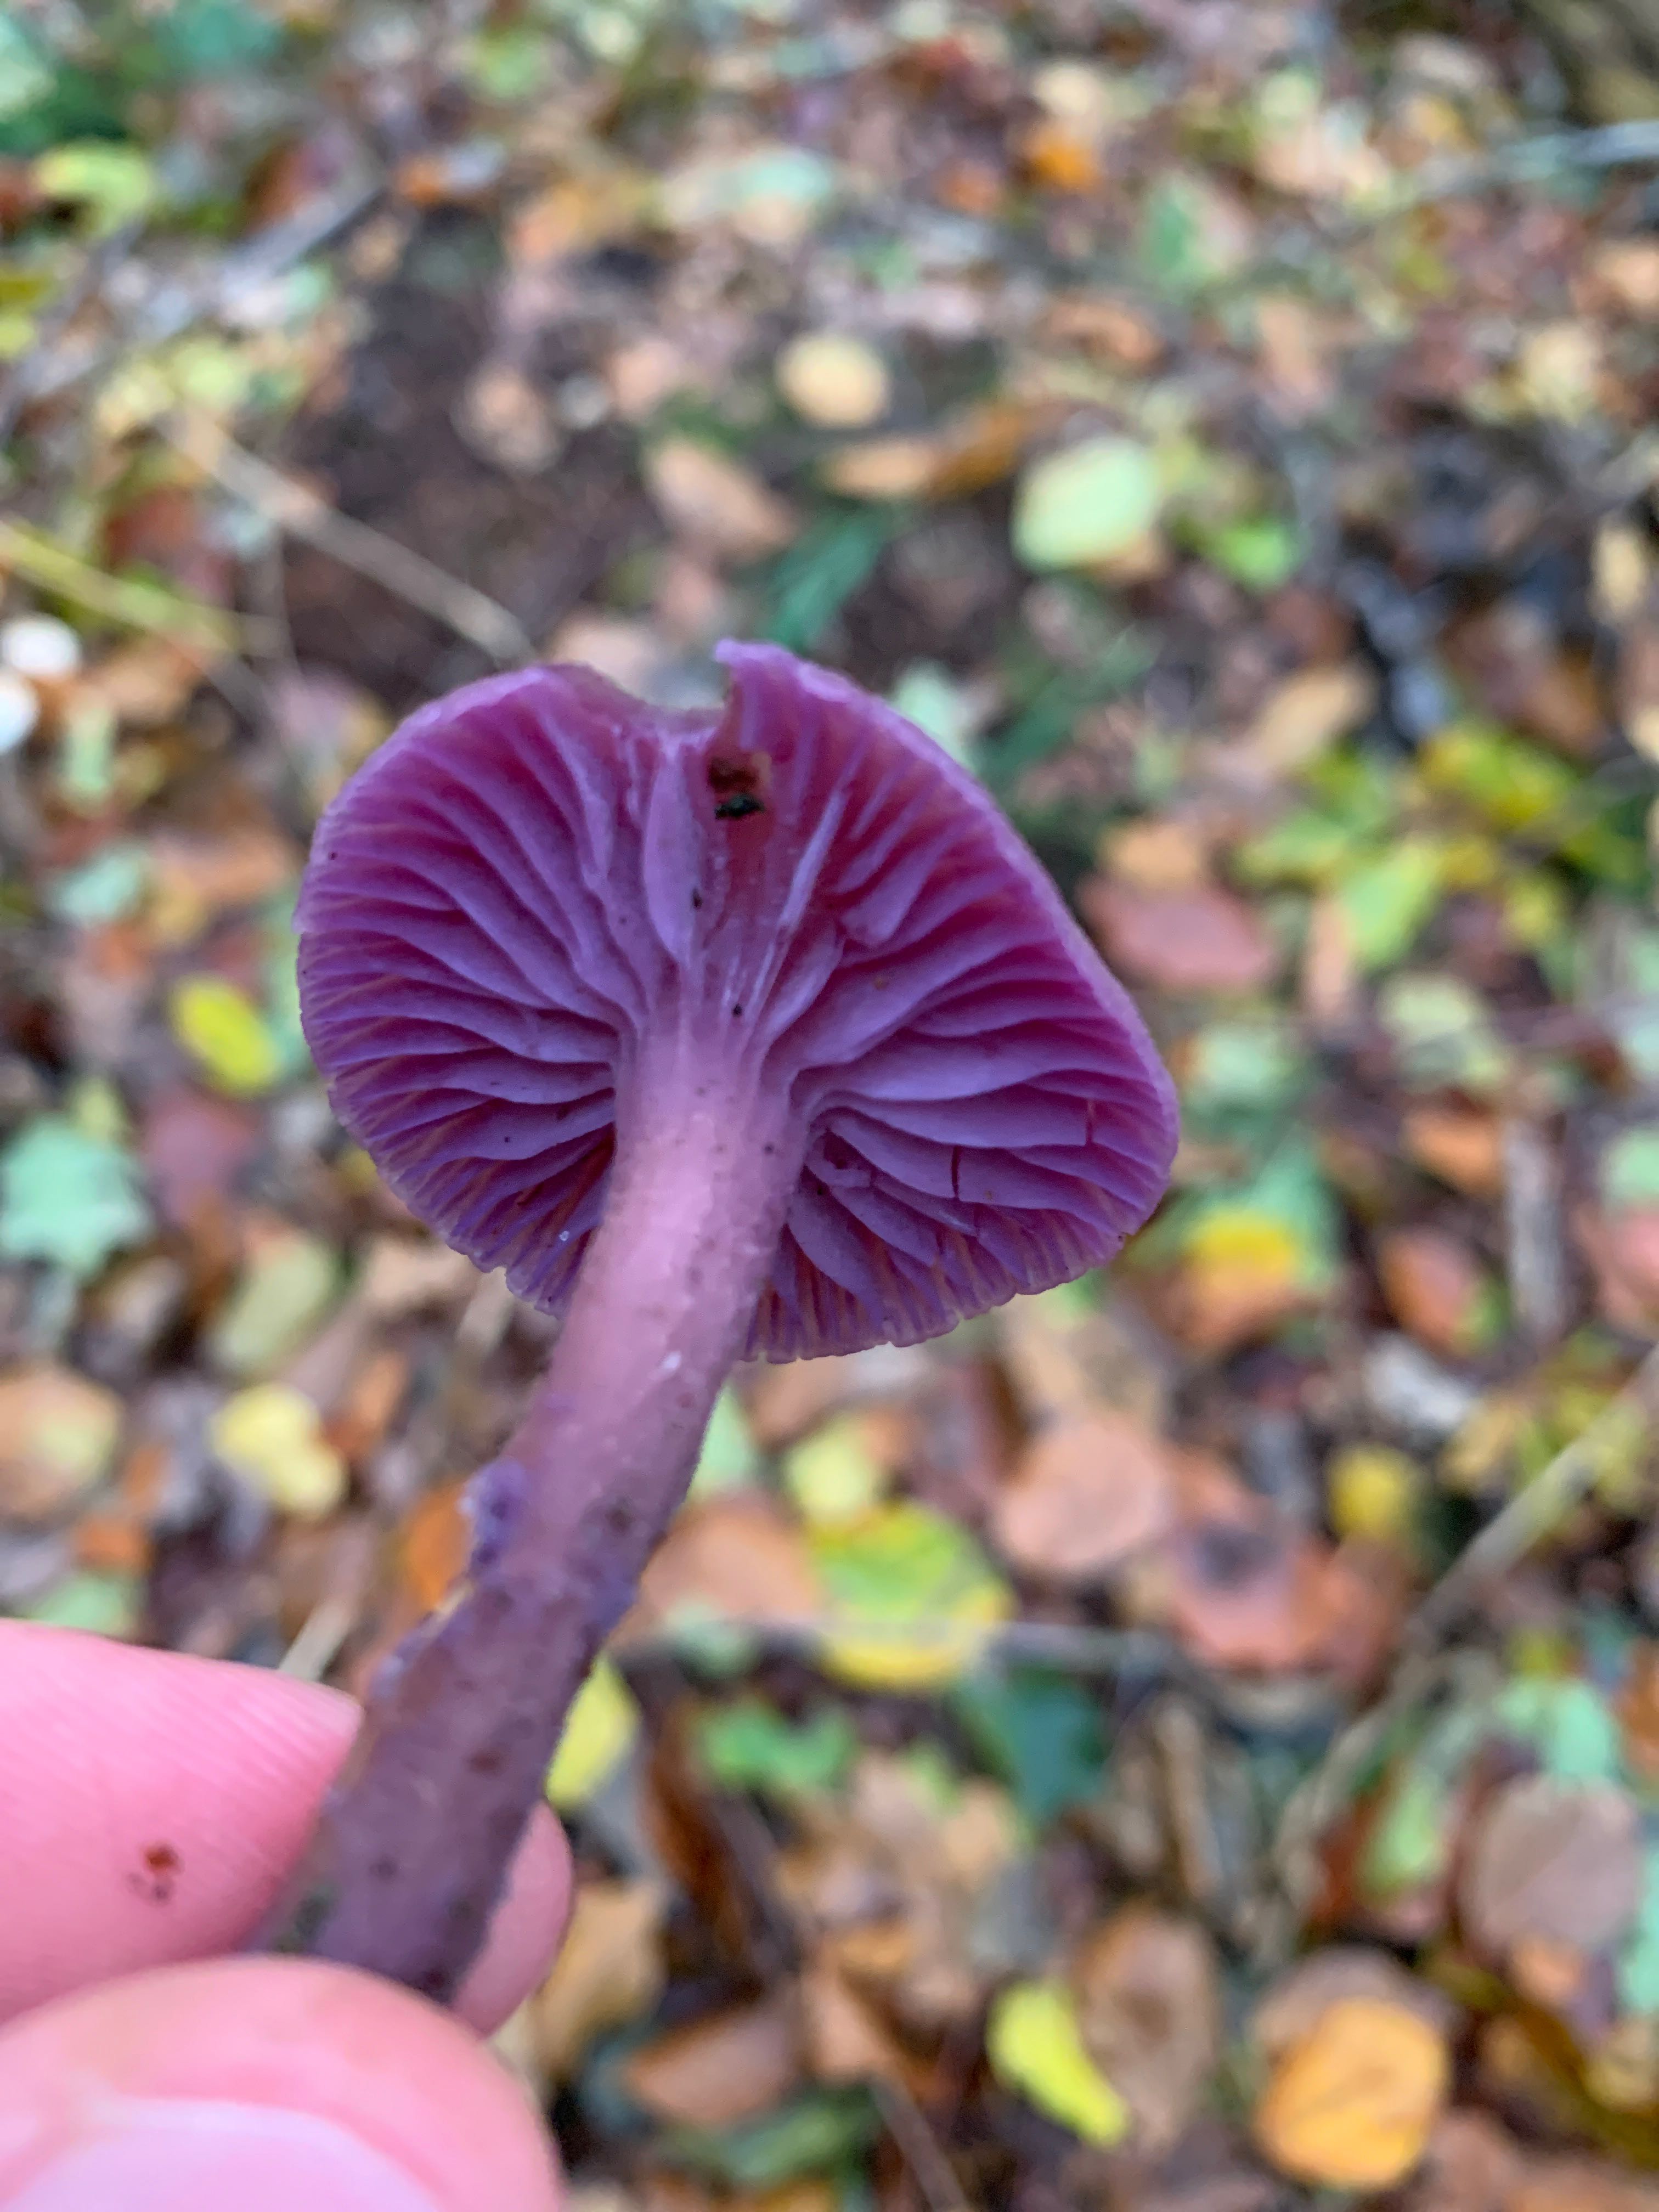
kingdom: Fungi
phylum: Basidiomycota
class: Agaricomycetes
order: Agaricales
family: Hydnangiaceae
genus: Laccaria
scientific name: Laccaria amethystina
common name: violet ametysthat
